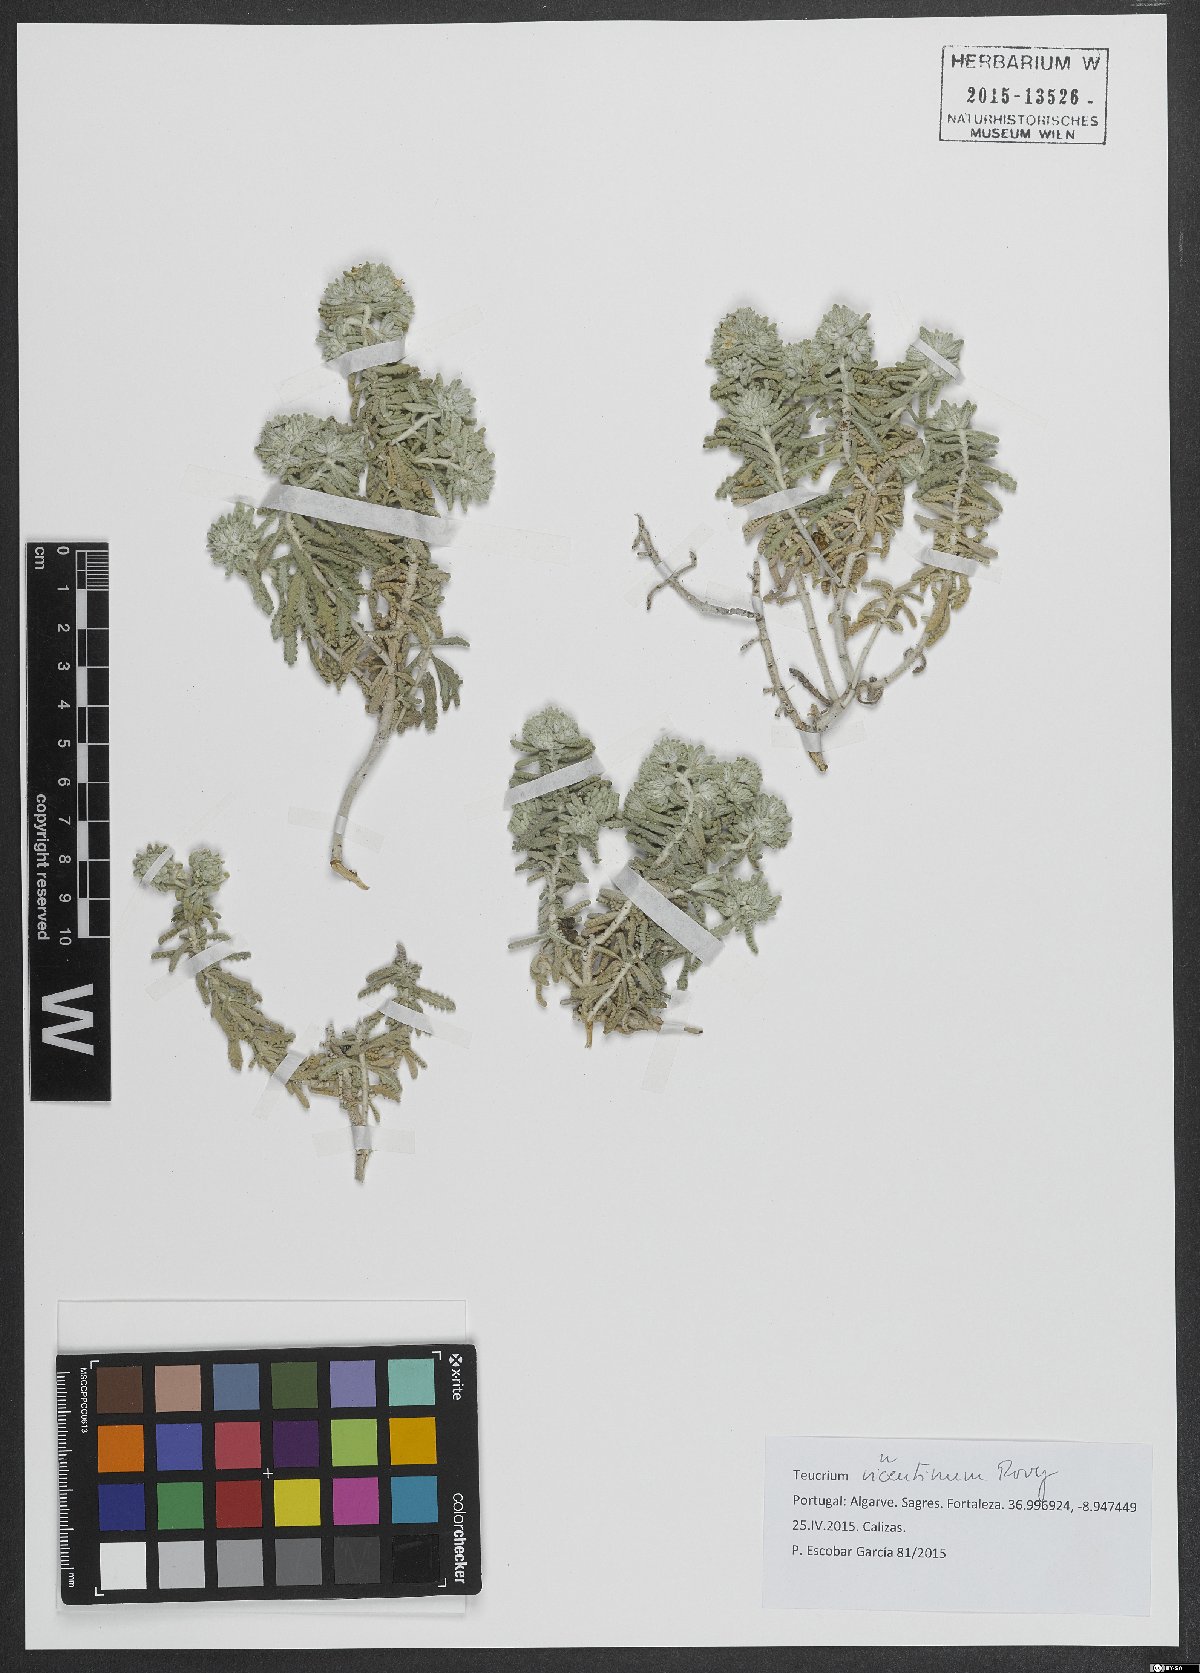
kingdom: Plantae
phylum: Tracheophyta
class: Magnoliopsida
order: Lamiales
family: Lamiaceae
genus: Teucrium
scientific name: Teucrium vincentinum
